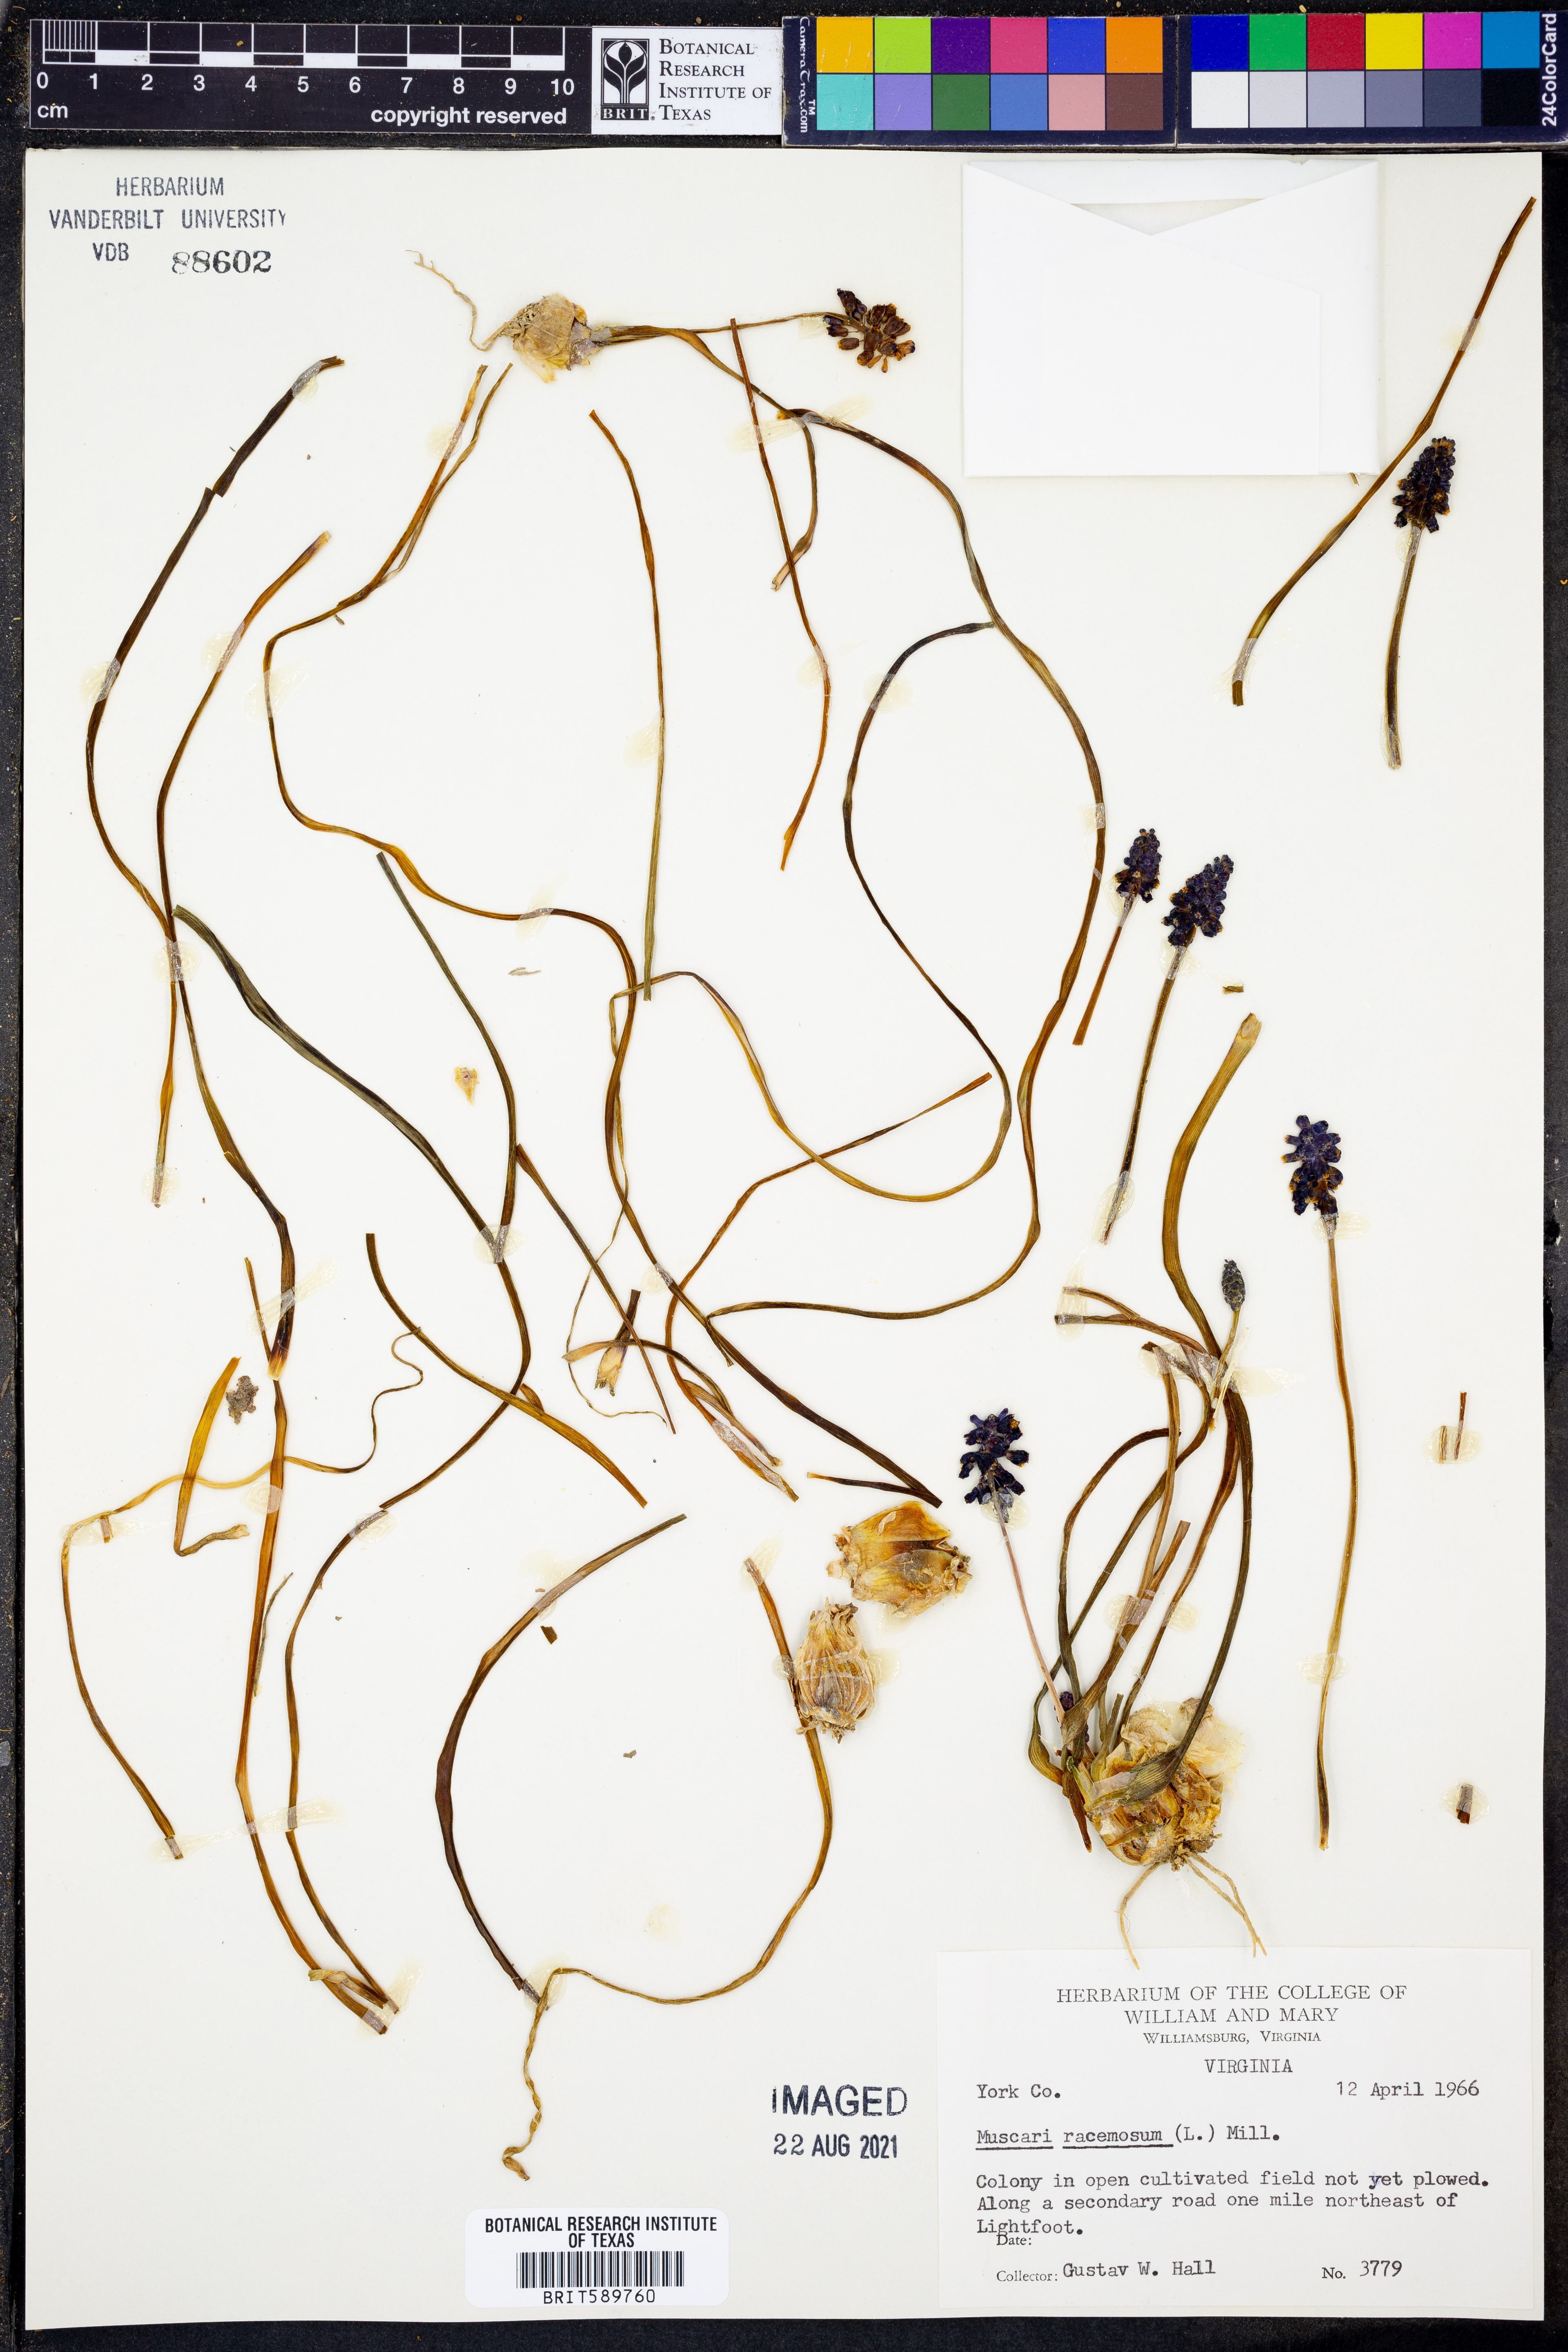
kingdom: Plantae
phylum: Tracheophyta
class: Liliopsida
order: Asparagales
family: Asparagaceae
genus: Muscarimia
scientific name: Muscarimia muscari
